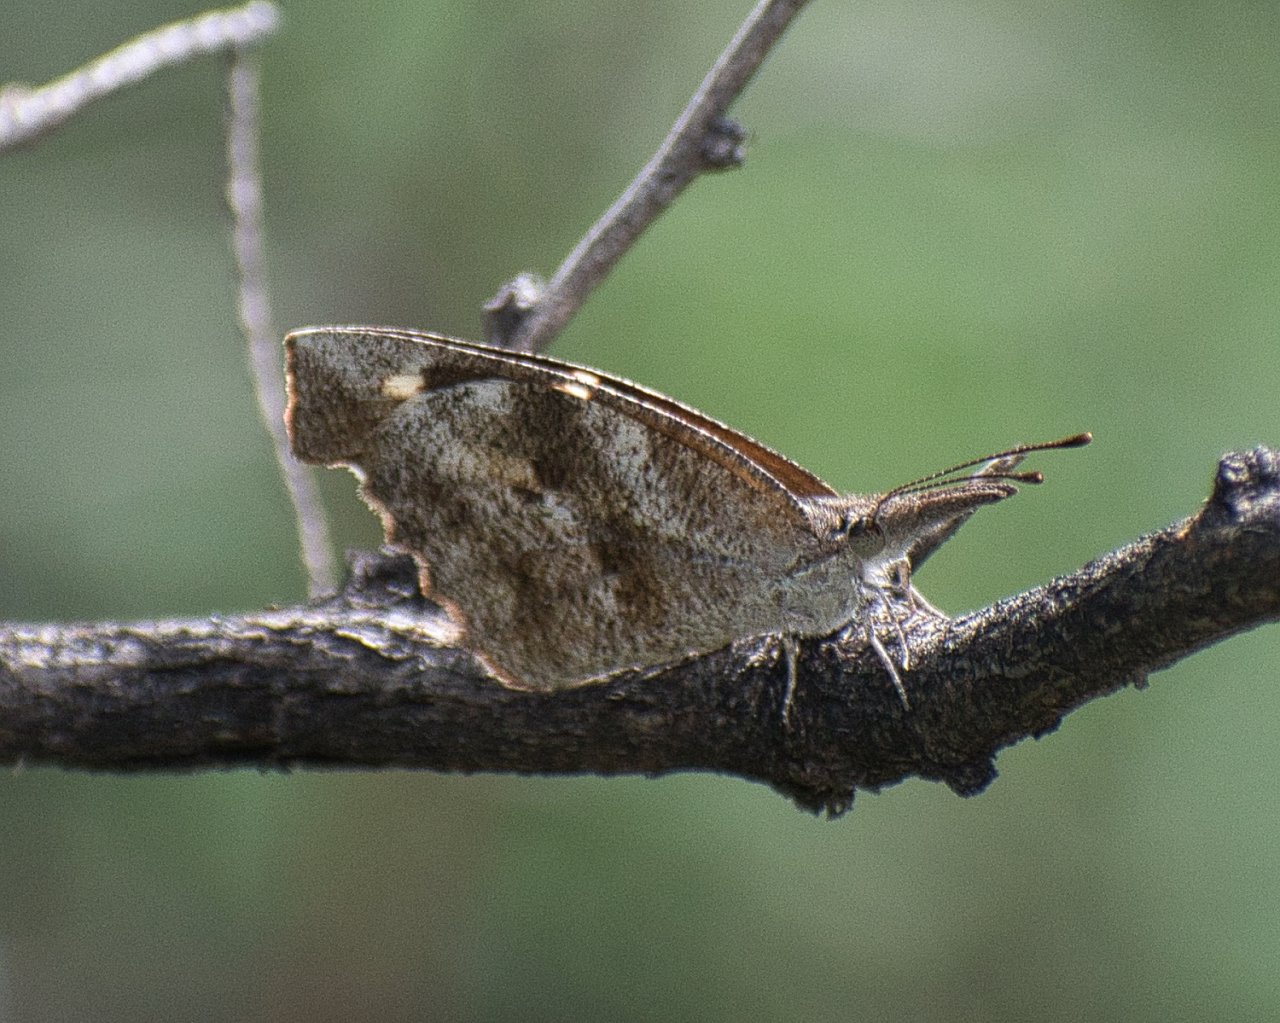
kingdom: Animalia
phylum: Arthropoda
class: Insecta
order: Lepidoptera
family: Nymphalidae
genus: Libytheana
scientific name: Libytheana carinenta
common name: American Snout
